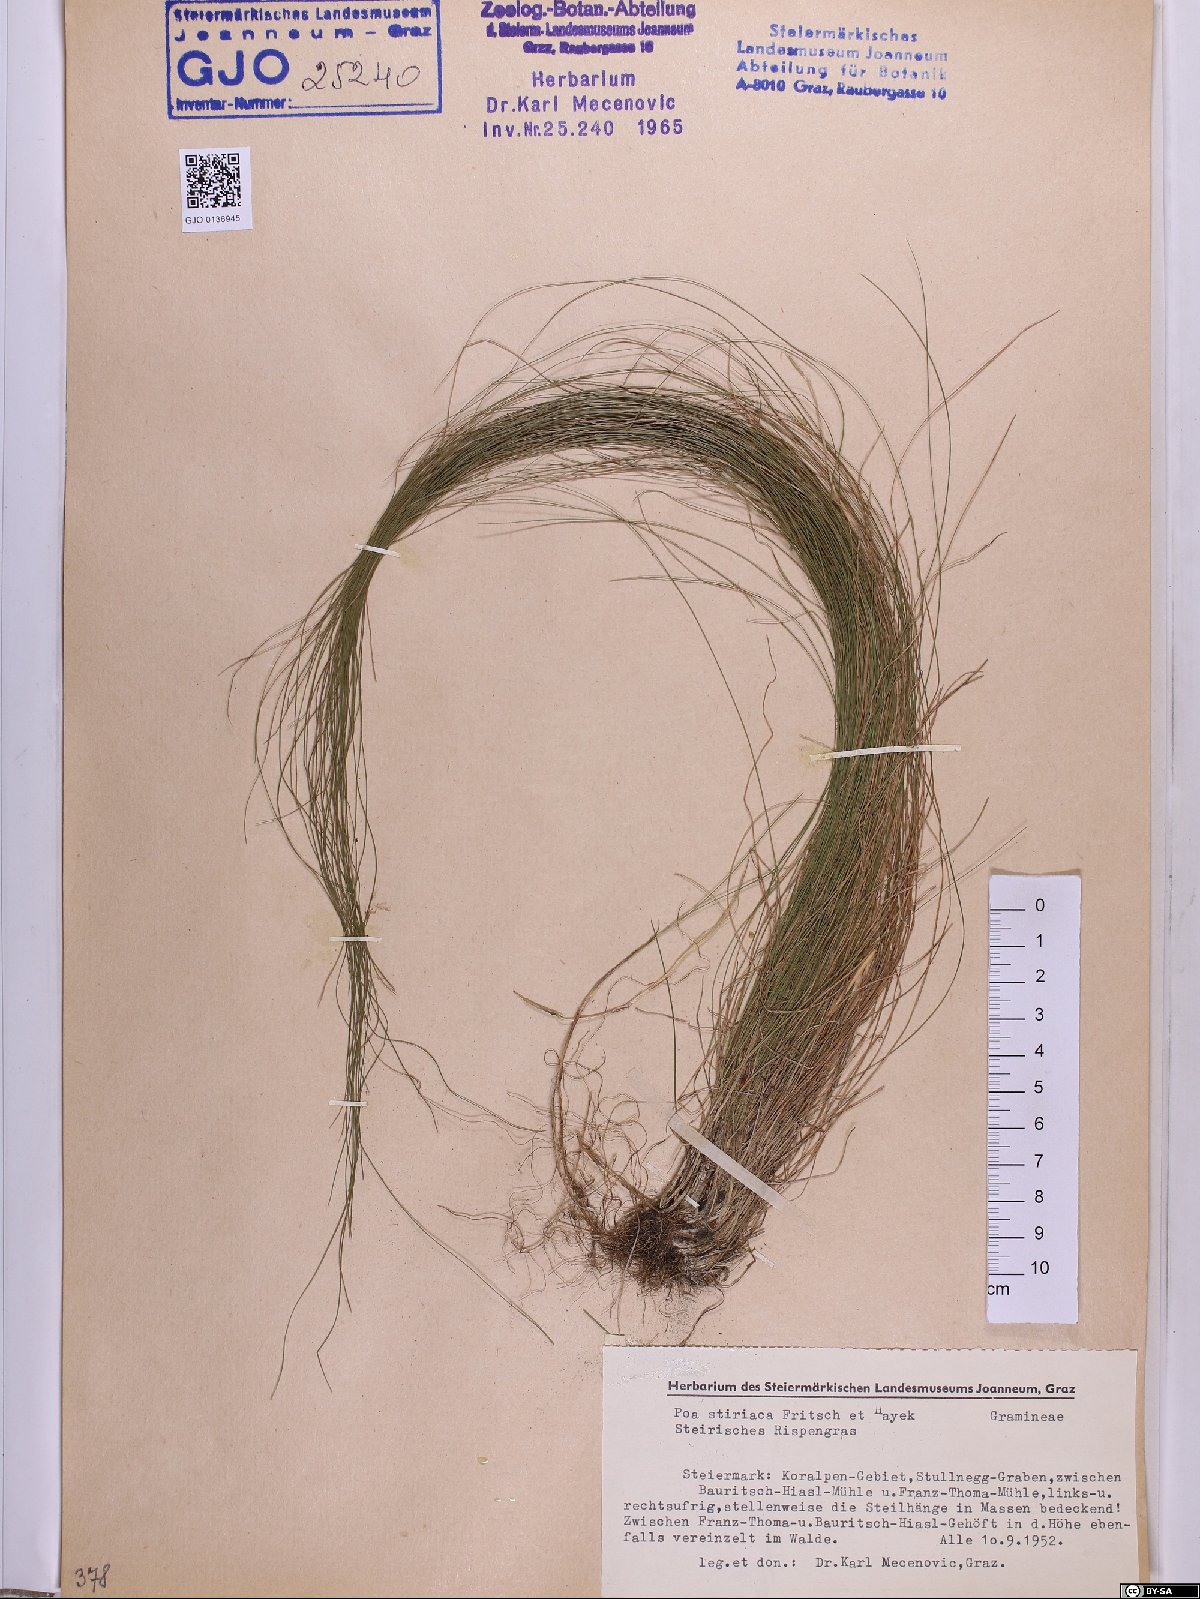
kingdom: Plantae
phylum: Tracheophyta
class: Liliopsida
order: Poales
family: Poaceae
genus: Poa
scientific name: Poa stiriaca
